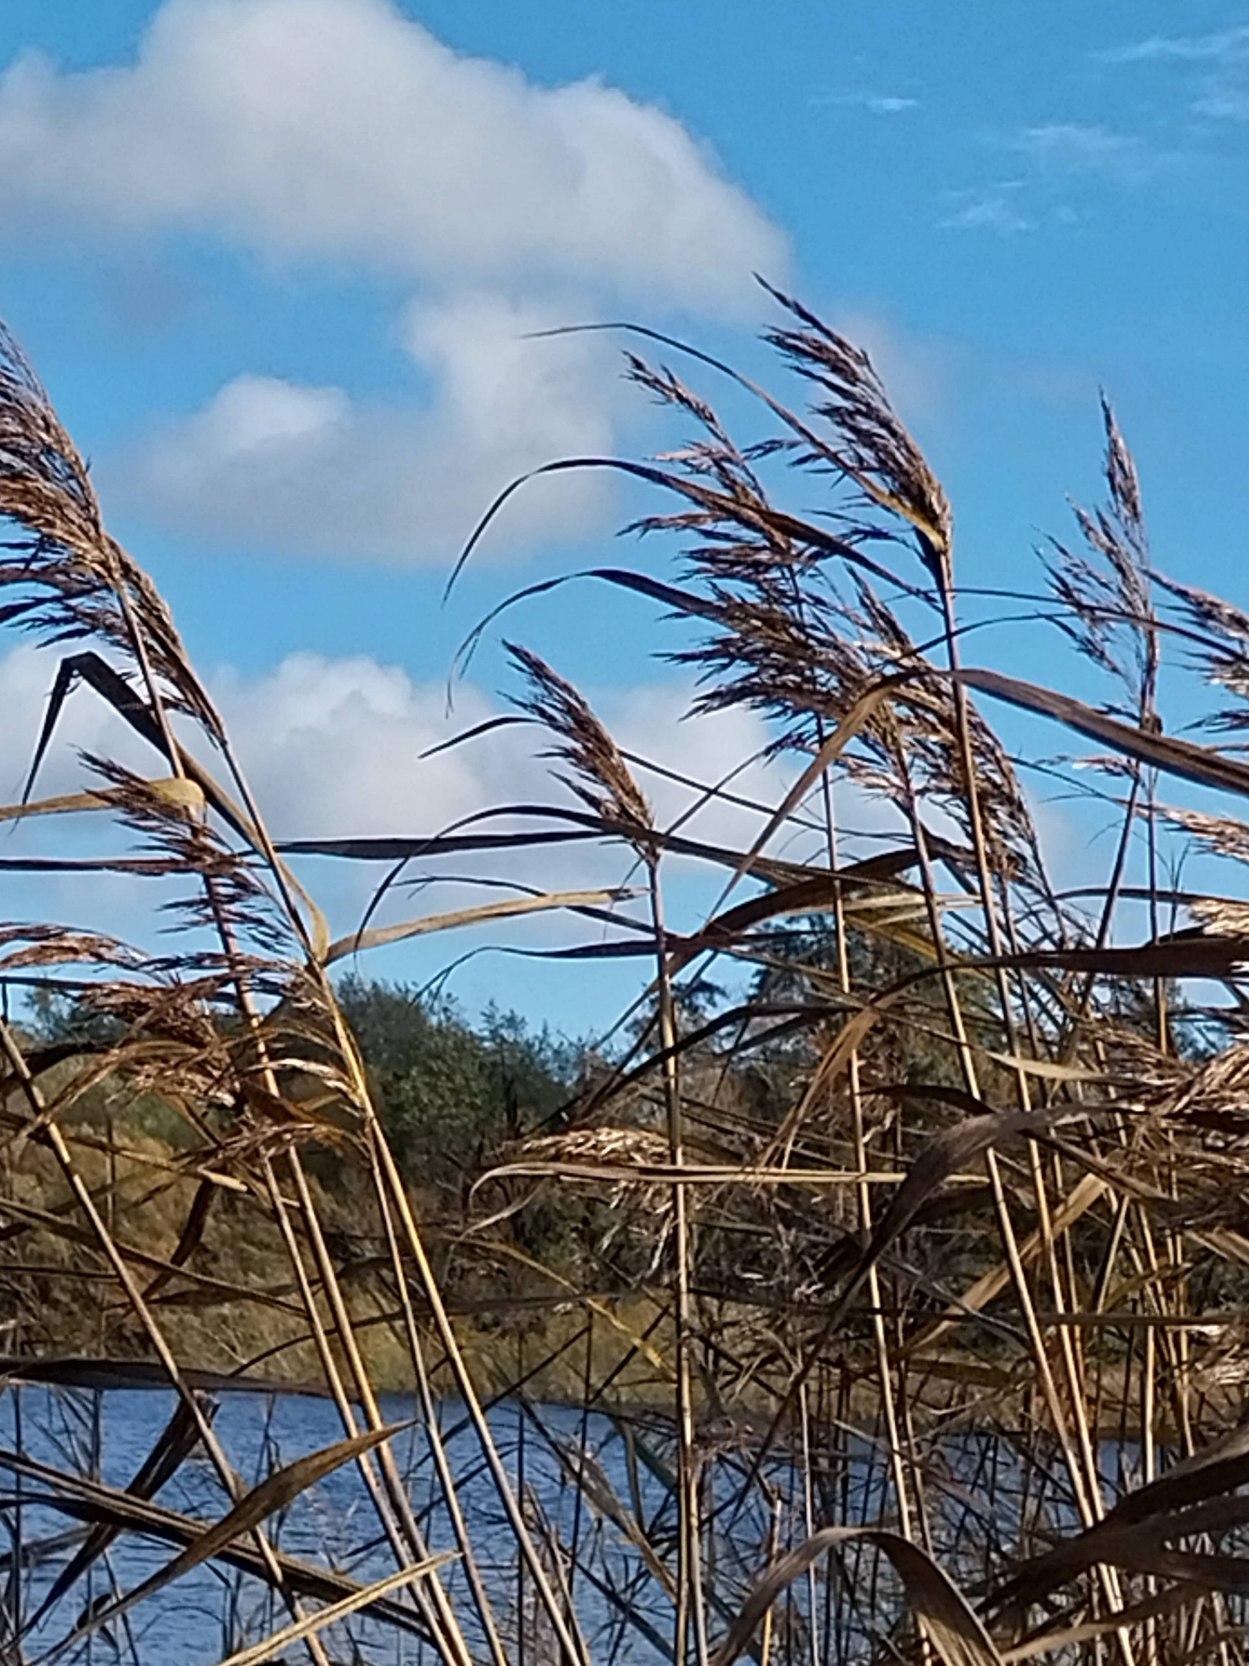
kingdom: Plantae
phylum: Tracheophyta
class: Liliopsida
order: Poales
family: Poaceae
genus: Phragmites
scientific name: Phragmites australis
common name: Tagrør
